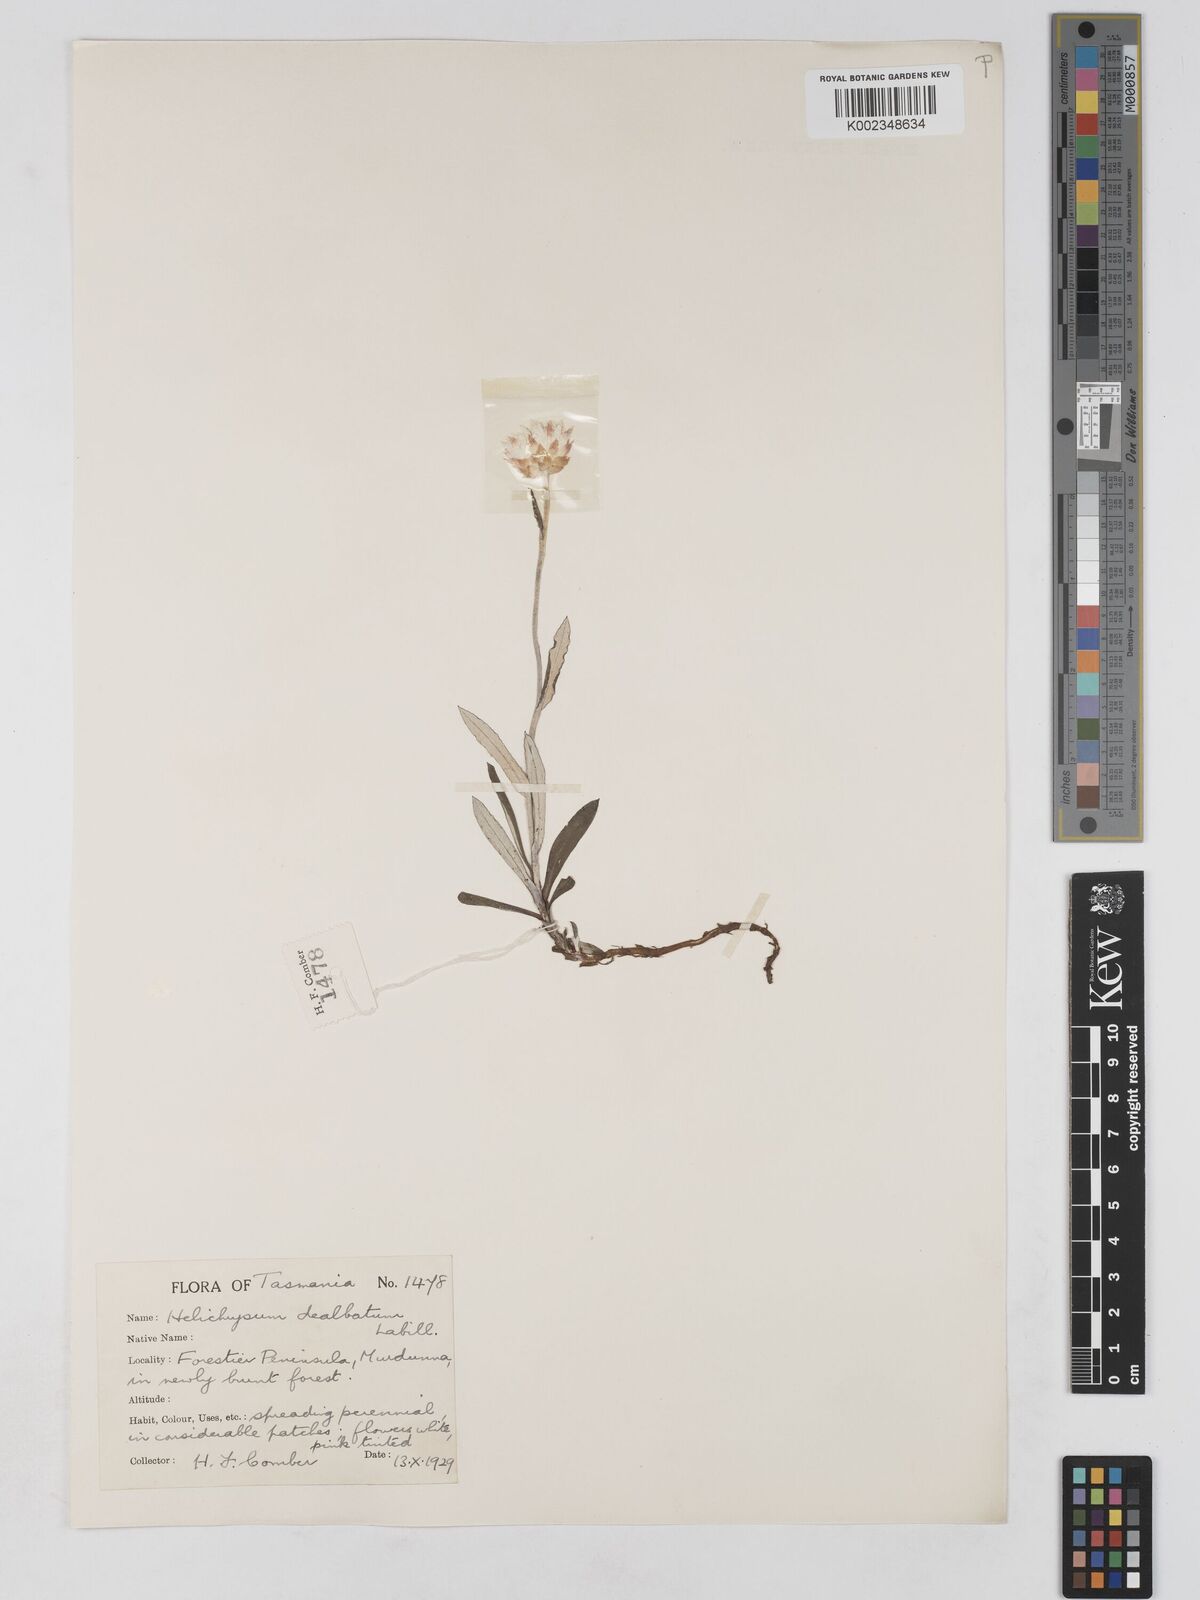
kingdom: Plantae
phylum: Tracheophyta
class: Magnoliopsida
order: Asterales
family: Asteraceae
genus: Argentipallium
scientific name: Argentipallium dealbatum
